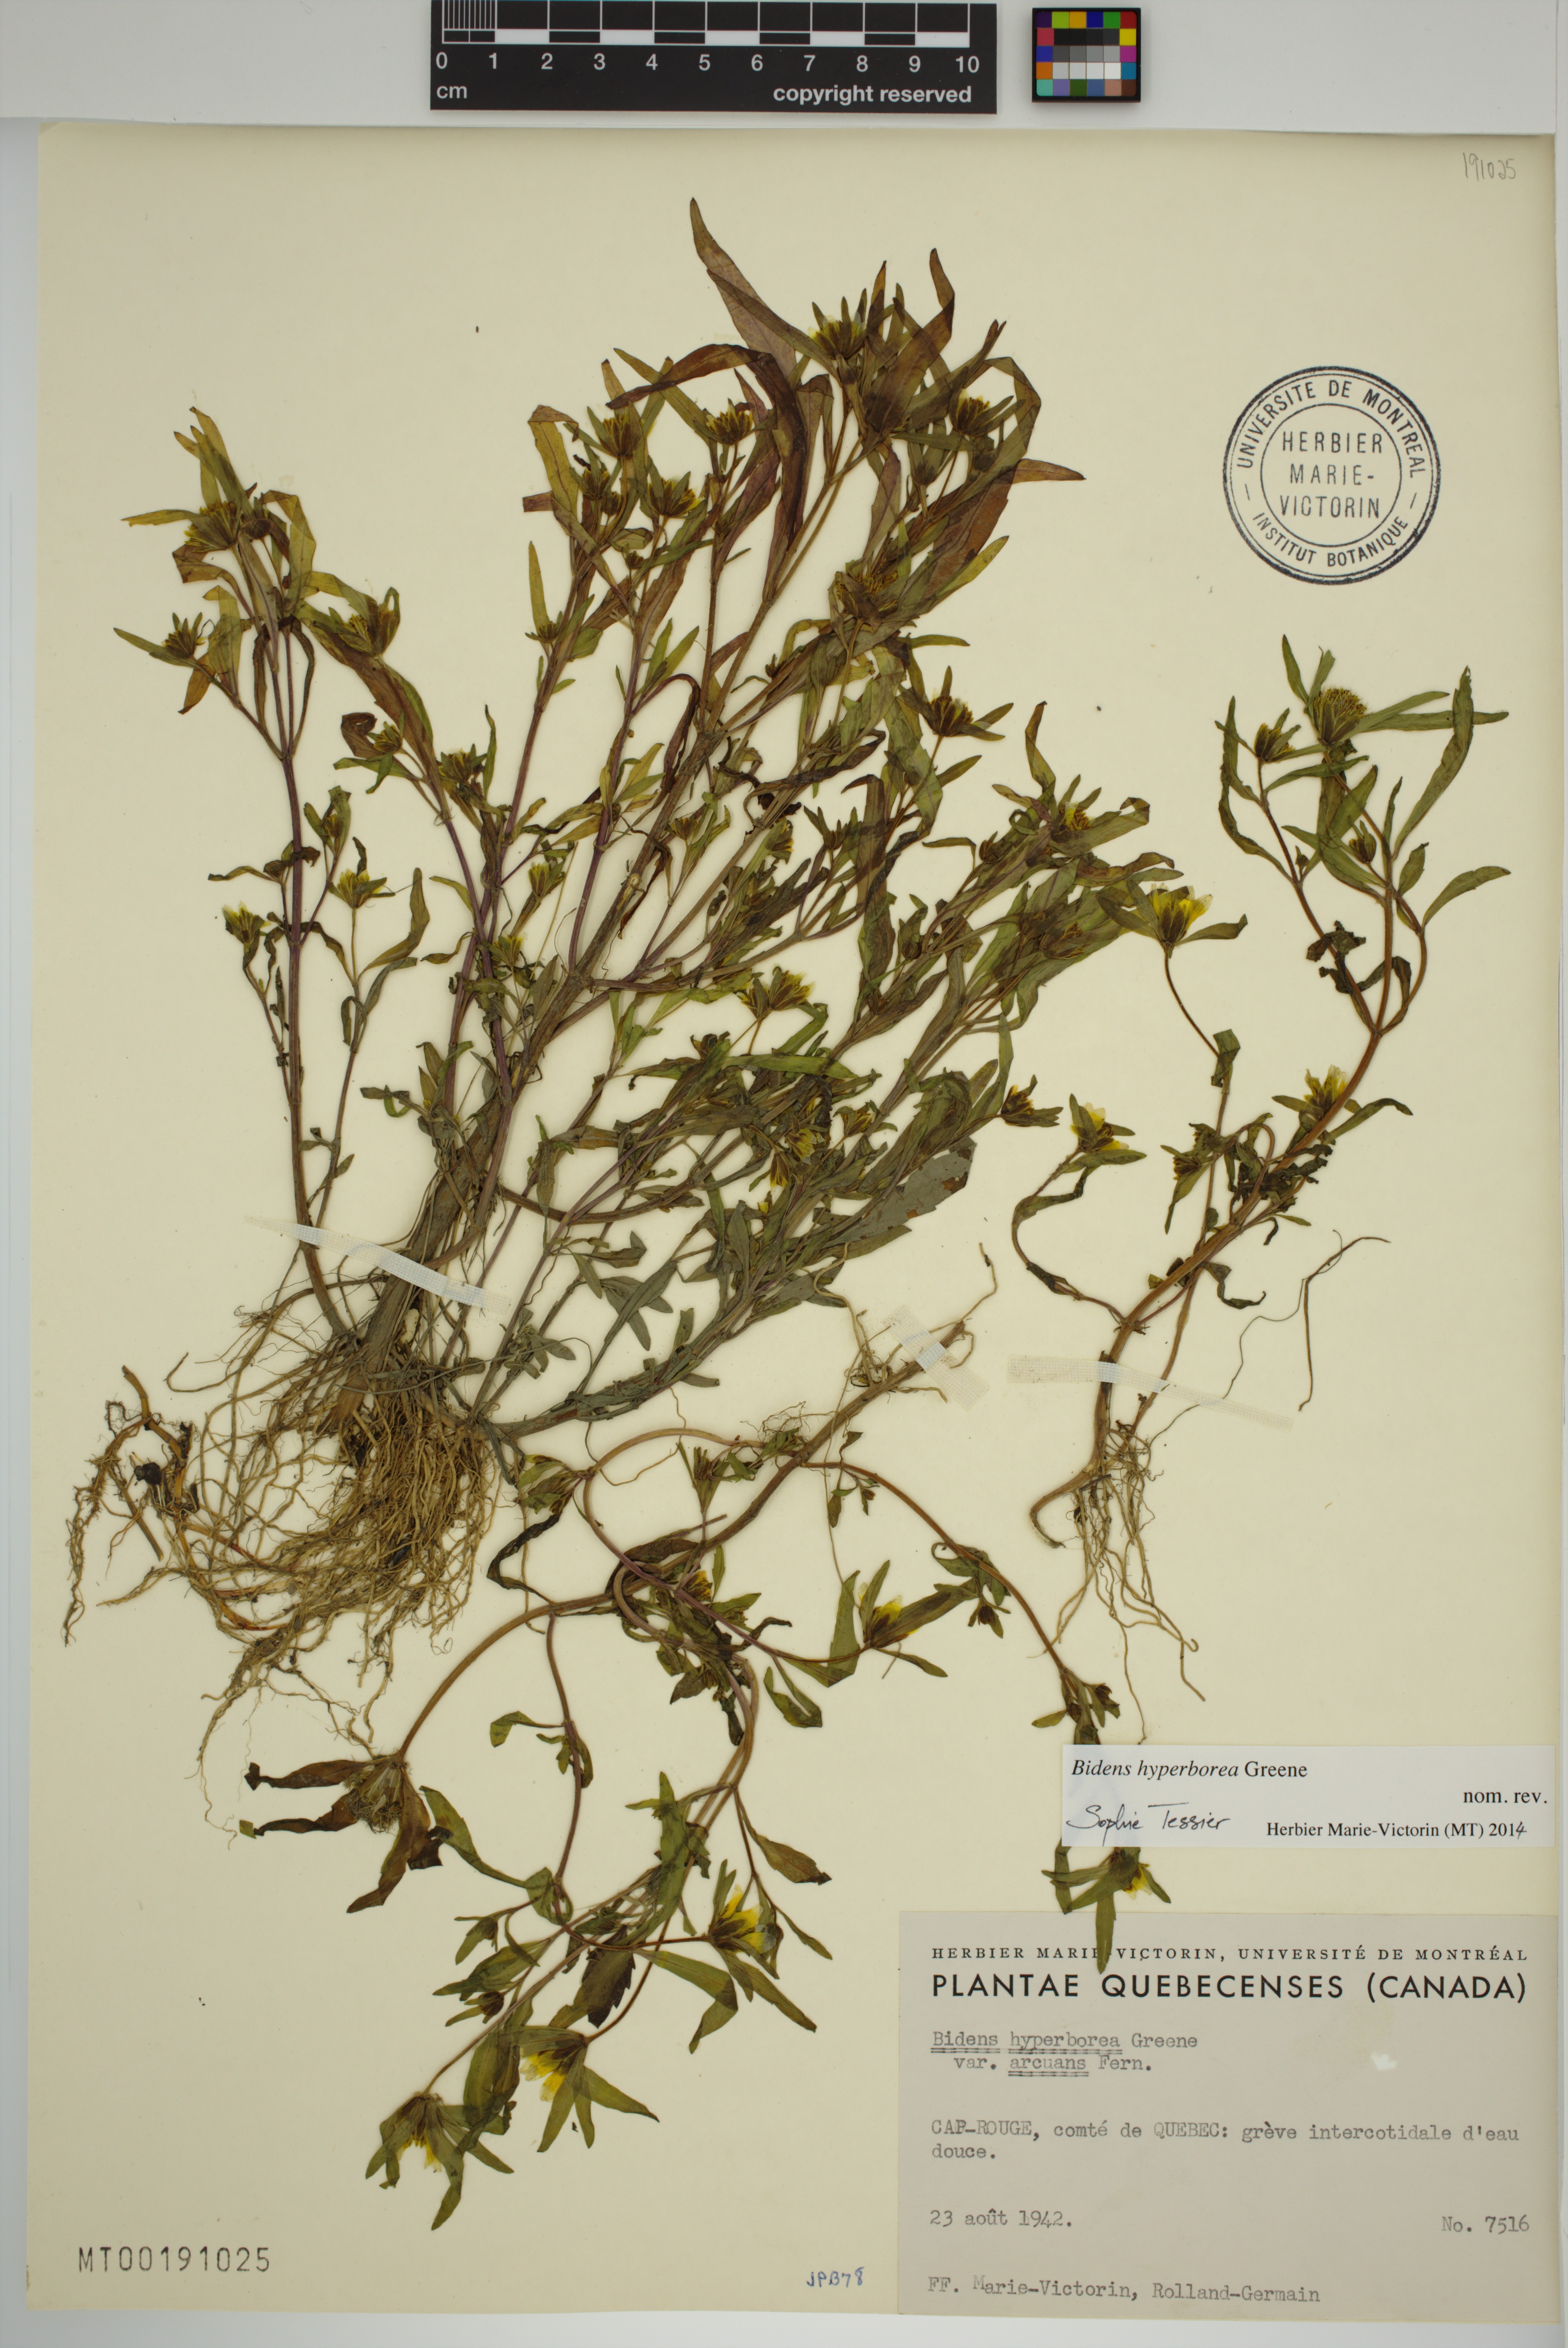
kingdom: Plantae
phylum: Tracheophyta
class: Magnoliopsida
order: Asterales
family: Asteraceae
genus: Bidens
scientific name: Bidens hyperborea
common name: Coastal beggarticks
